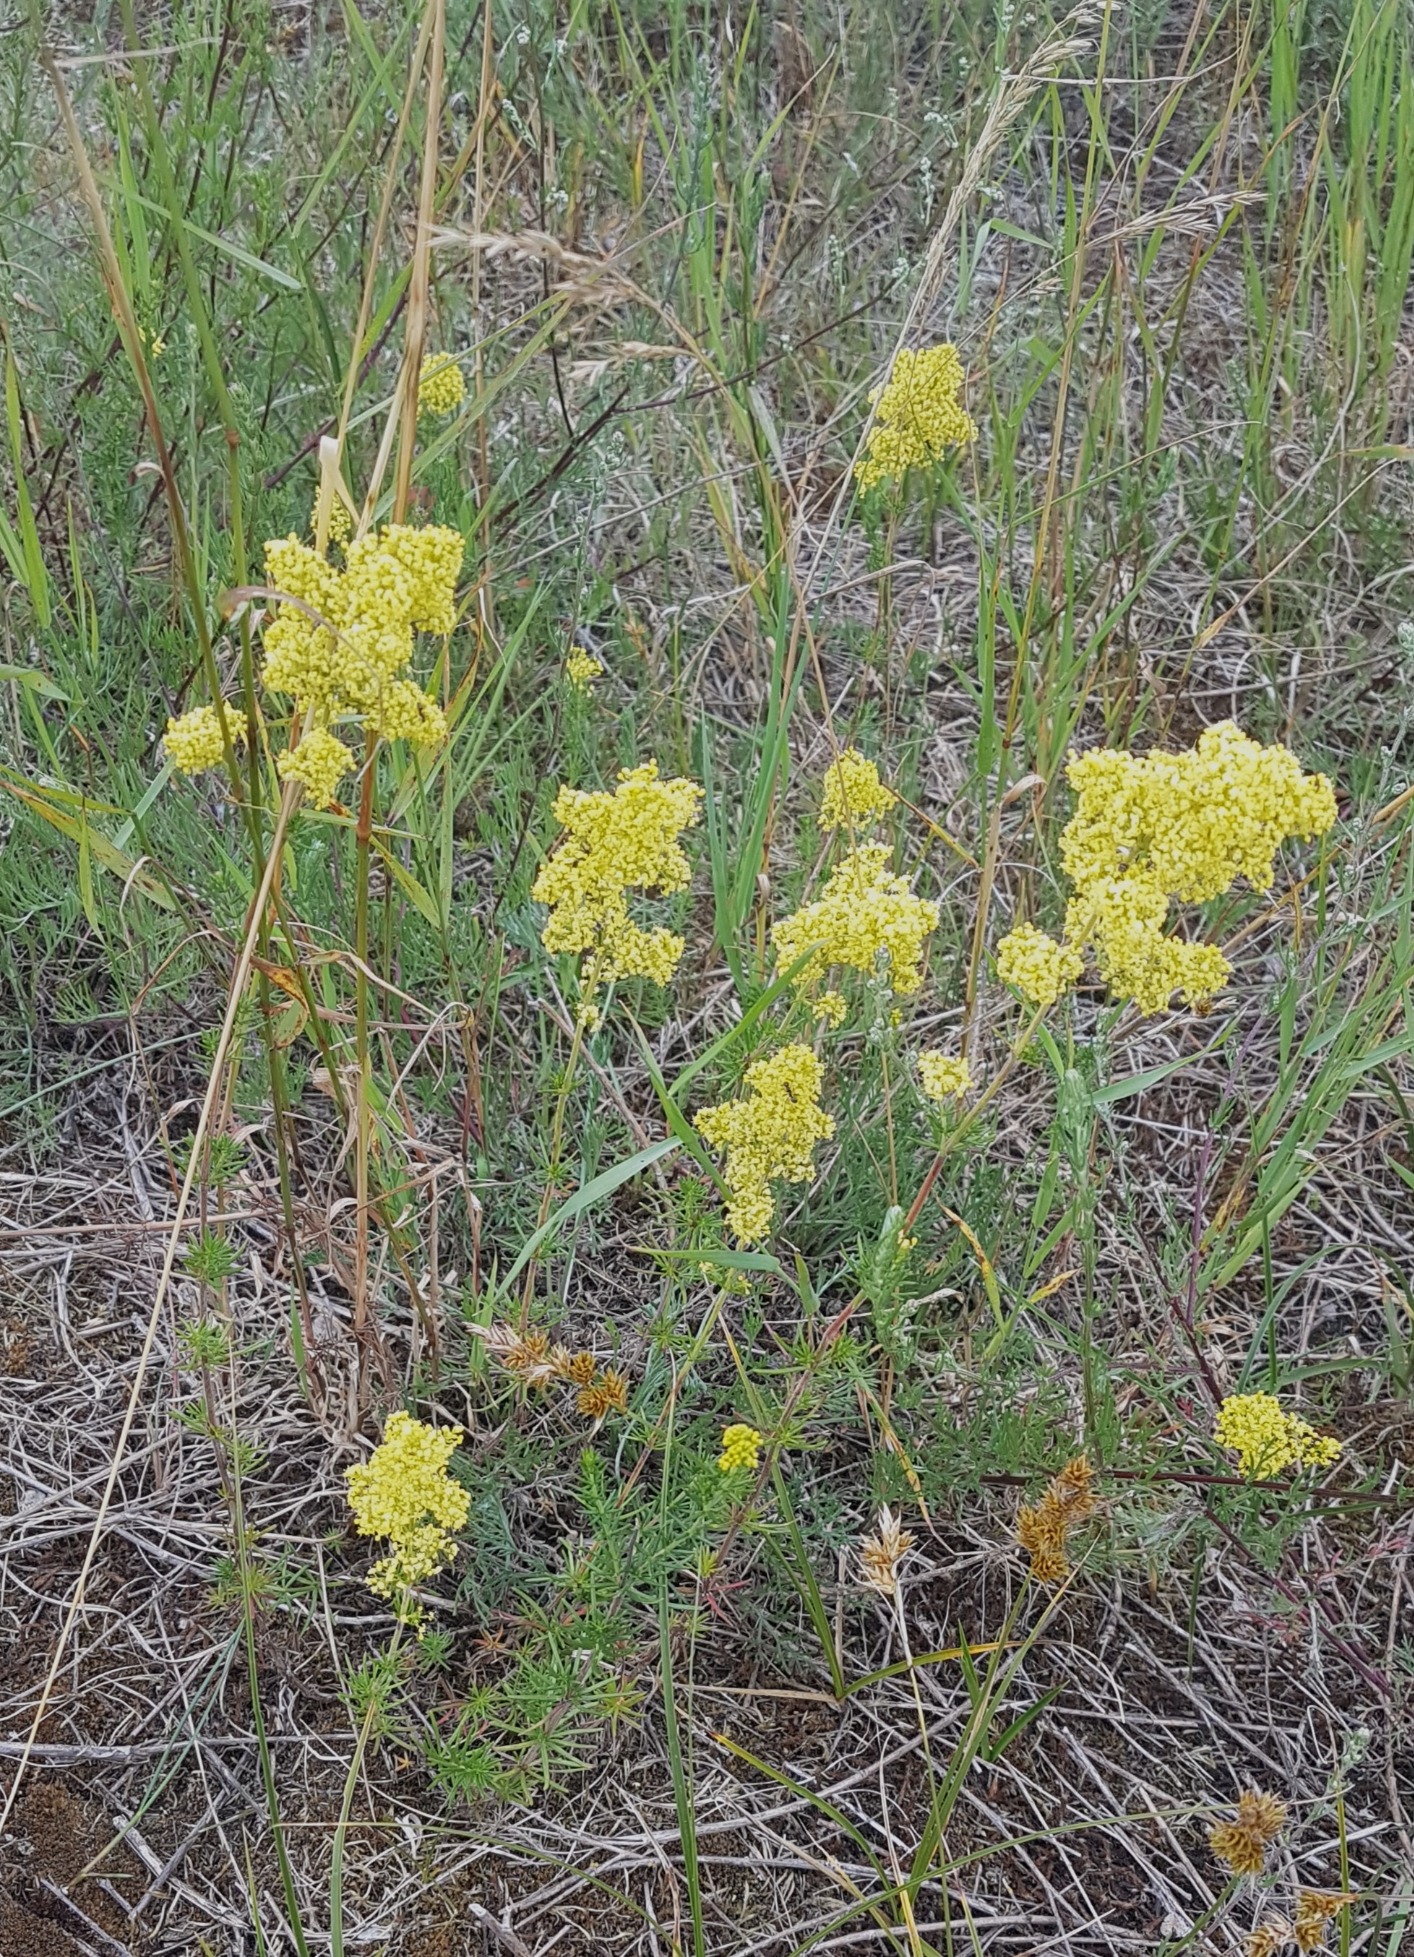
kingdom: Plantae
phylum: Tracheophyta
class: Magnoliopsida
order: Gentianales
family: Rubiaceae
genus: Galium
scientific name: Galium verum
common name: Gul snerre
